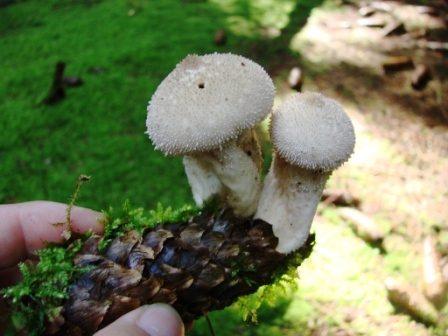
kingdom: Fungi
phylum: Basidiomycota
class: Agaricomycetes
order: Agaricales
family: Lycoperdaceae
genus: Lycoperdon
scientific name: Lycoperdon perlatum
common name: krystal-støvbold
